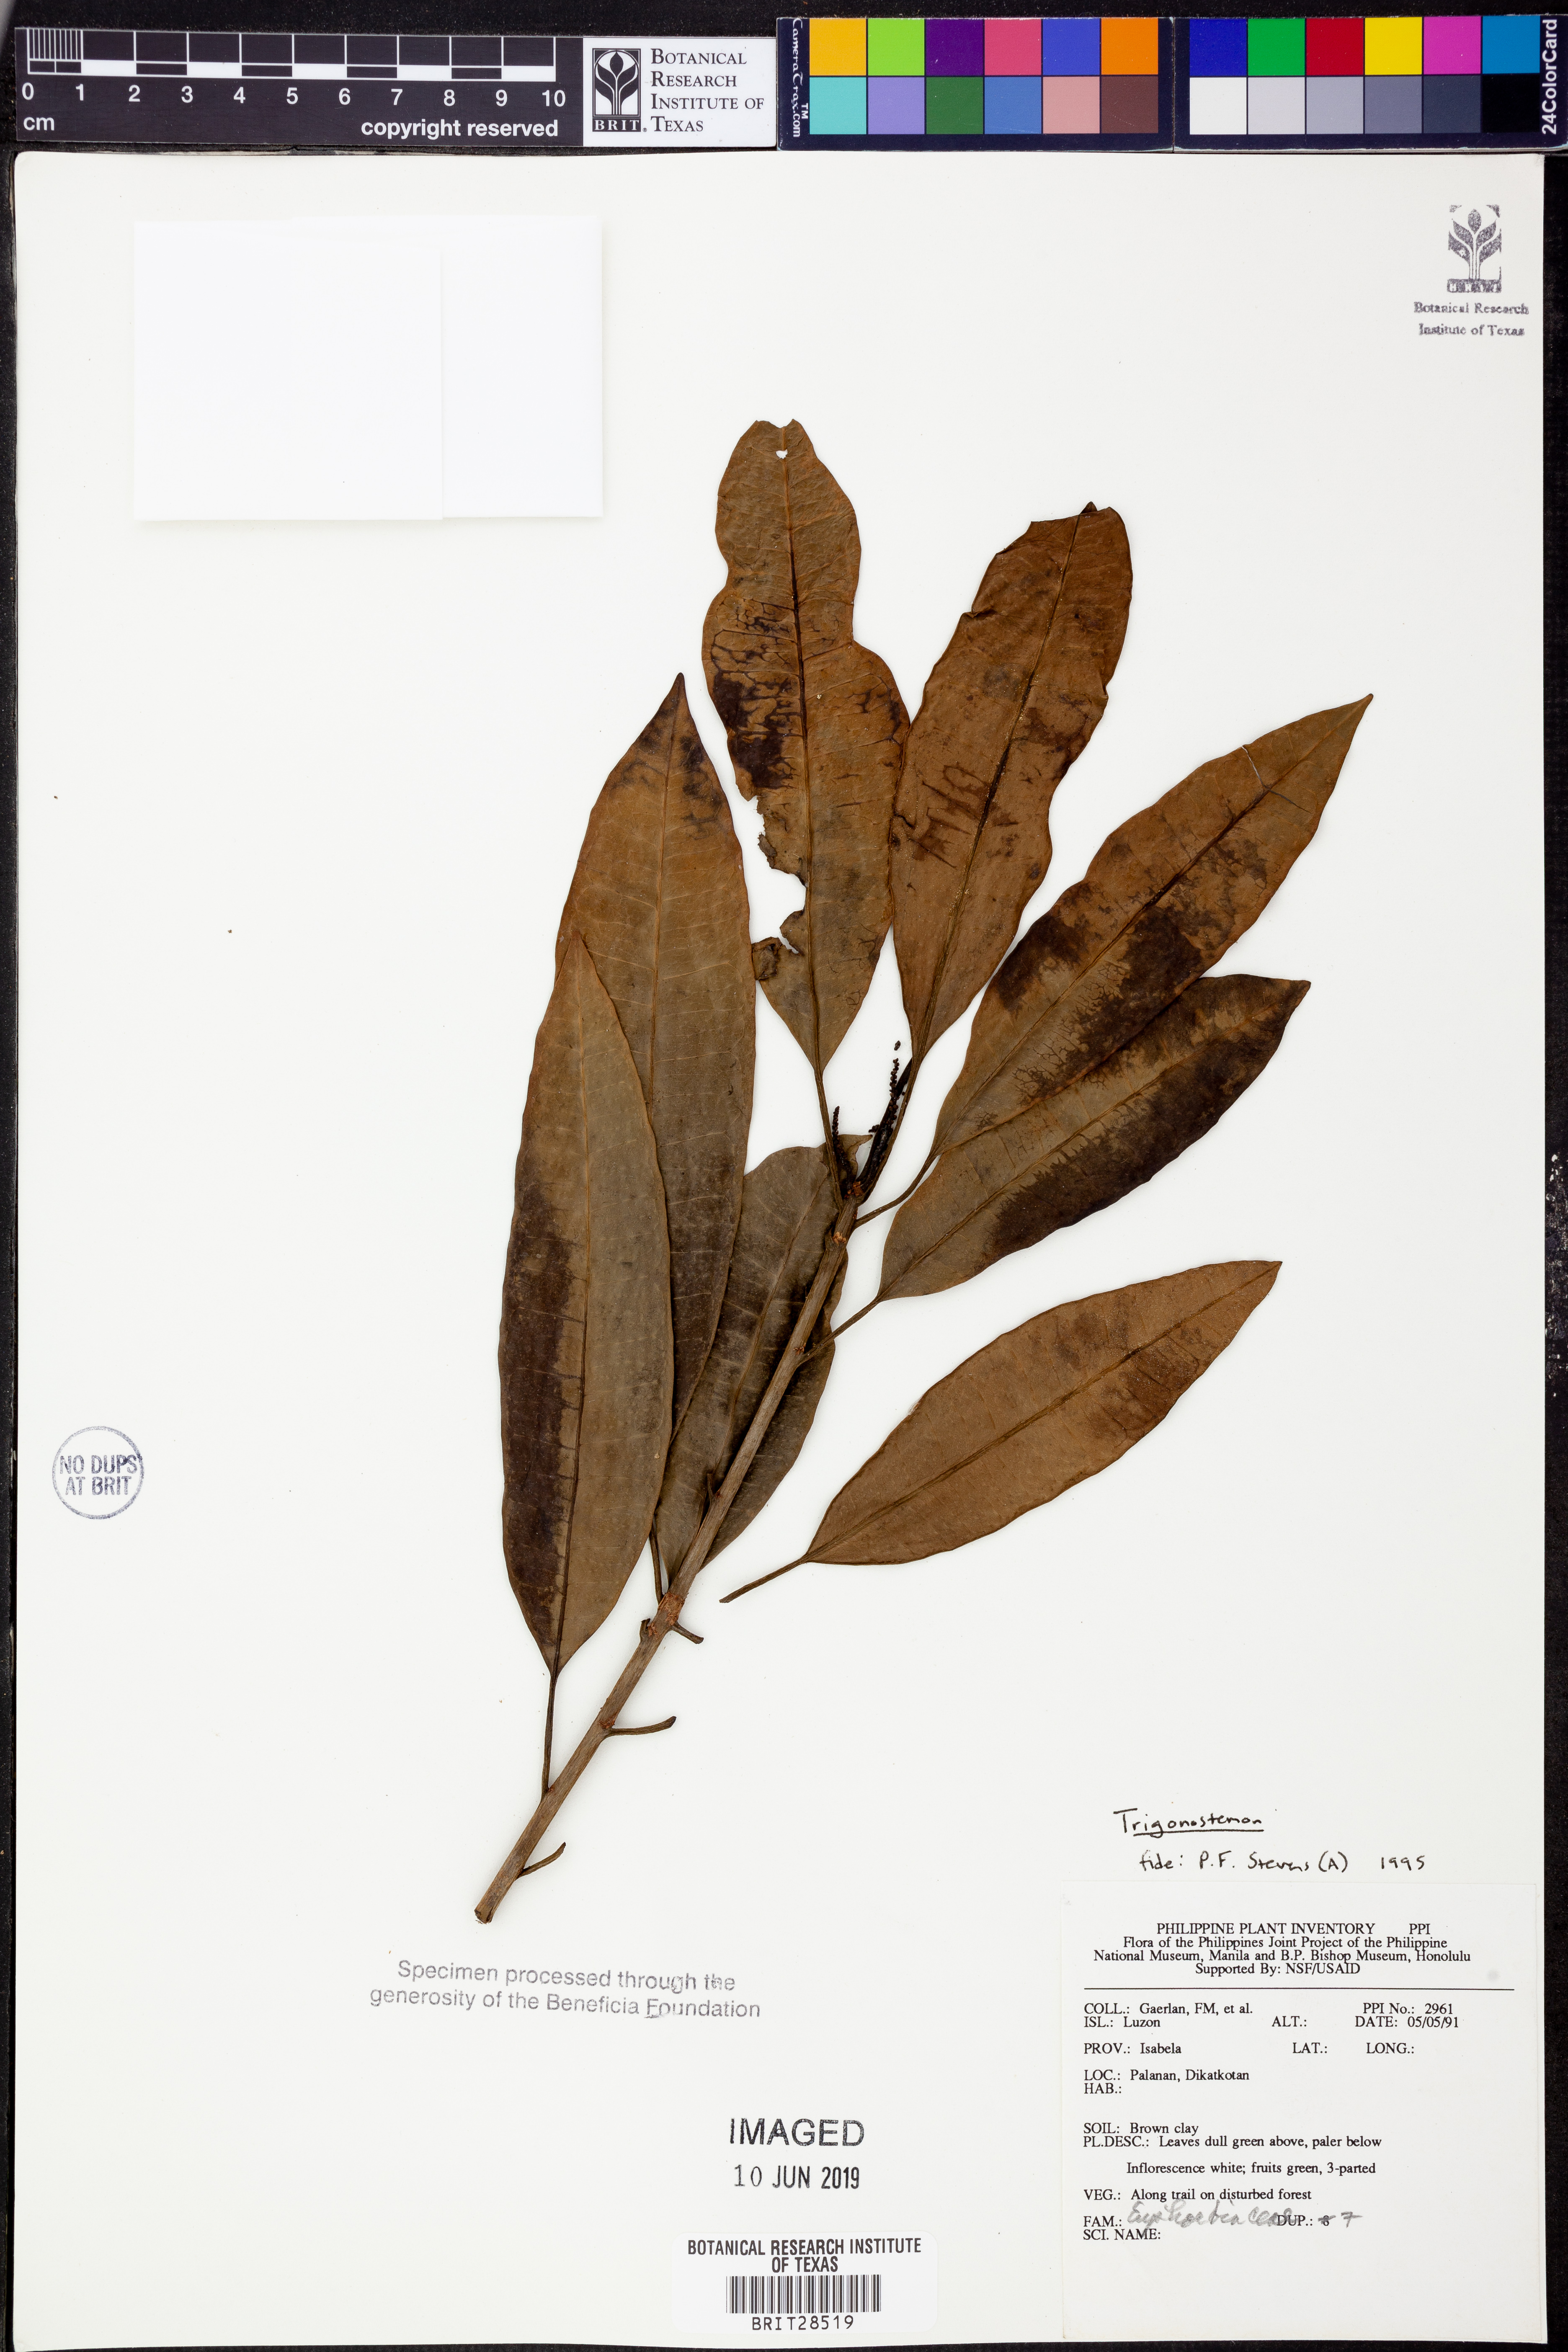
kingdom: Plantae
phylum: Tracheophyta
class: Magnoliopsida
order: Malpighiales
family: Euphorbiaceae
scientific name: Euphorbiaceae
